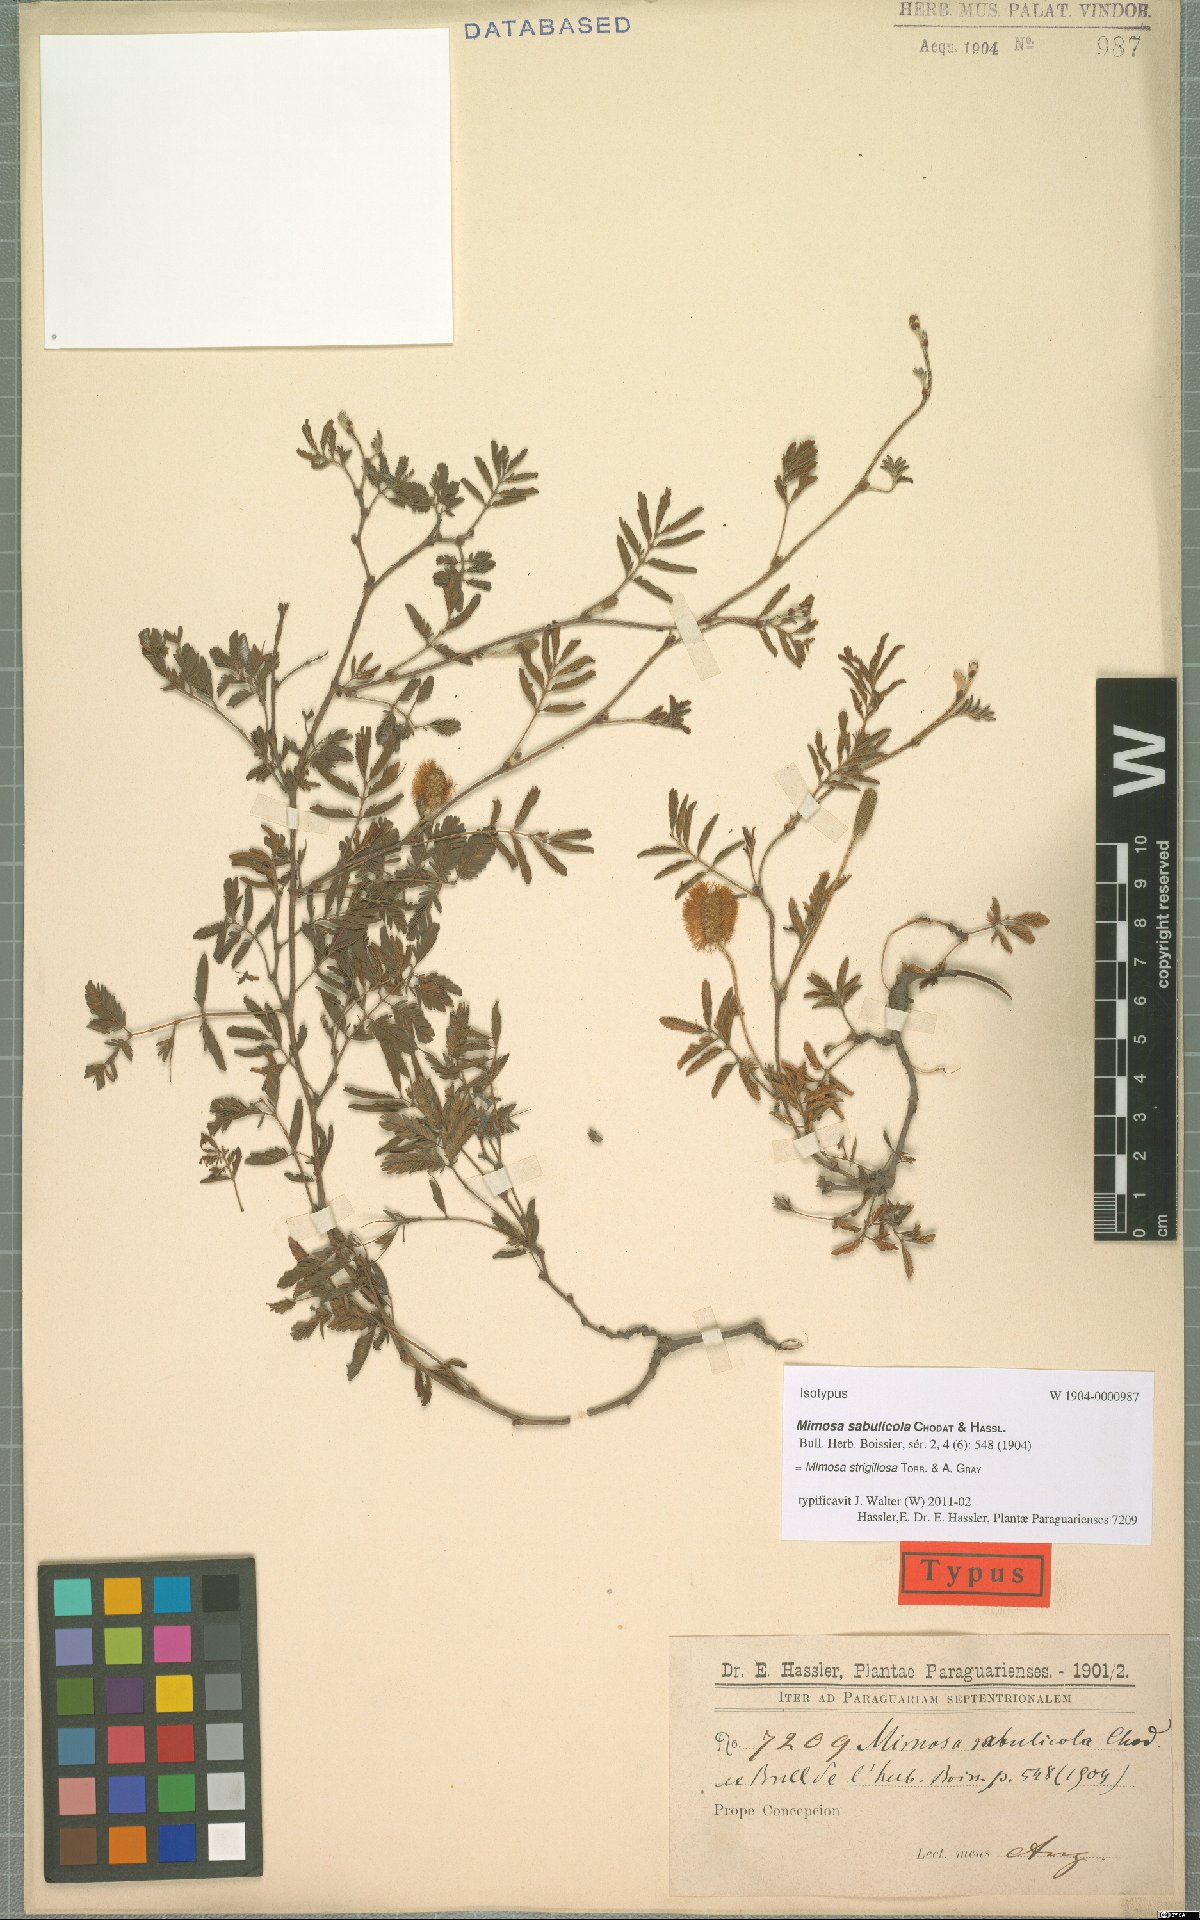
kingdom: Plantae
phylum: Tracheophyta
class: Magnoliopsida
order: Fabales
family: Fabaceae
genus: Mimosa
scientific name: Mimosa strigillosa
